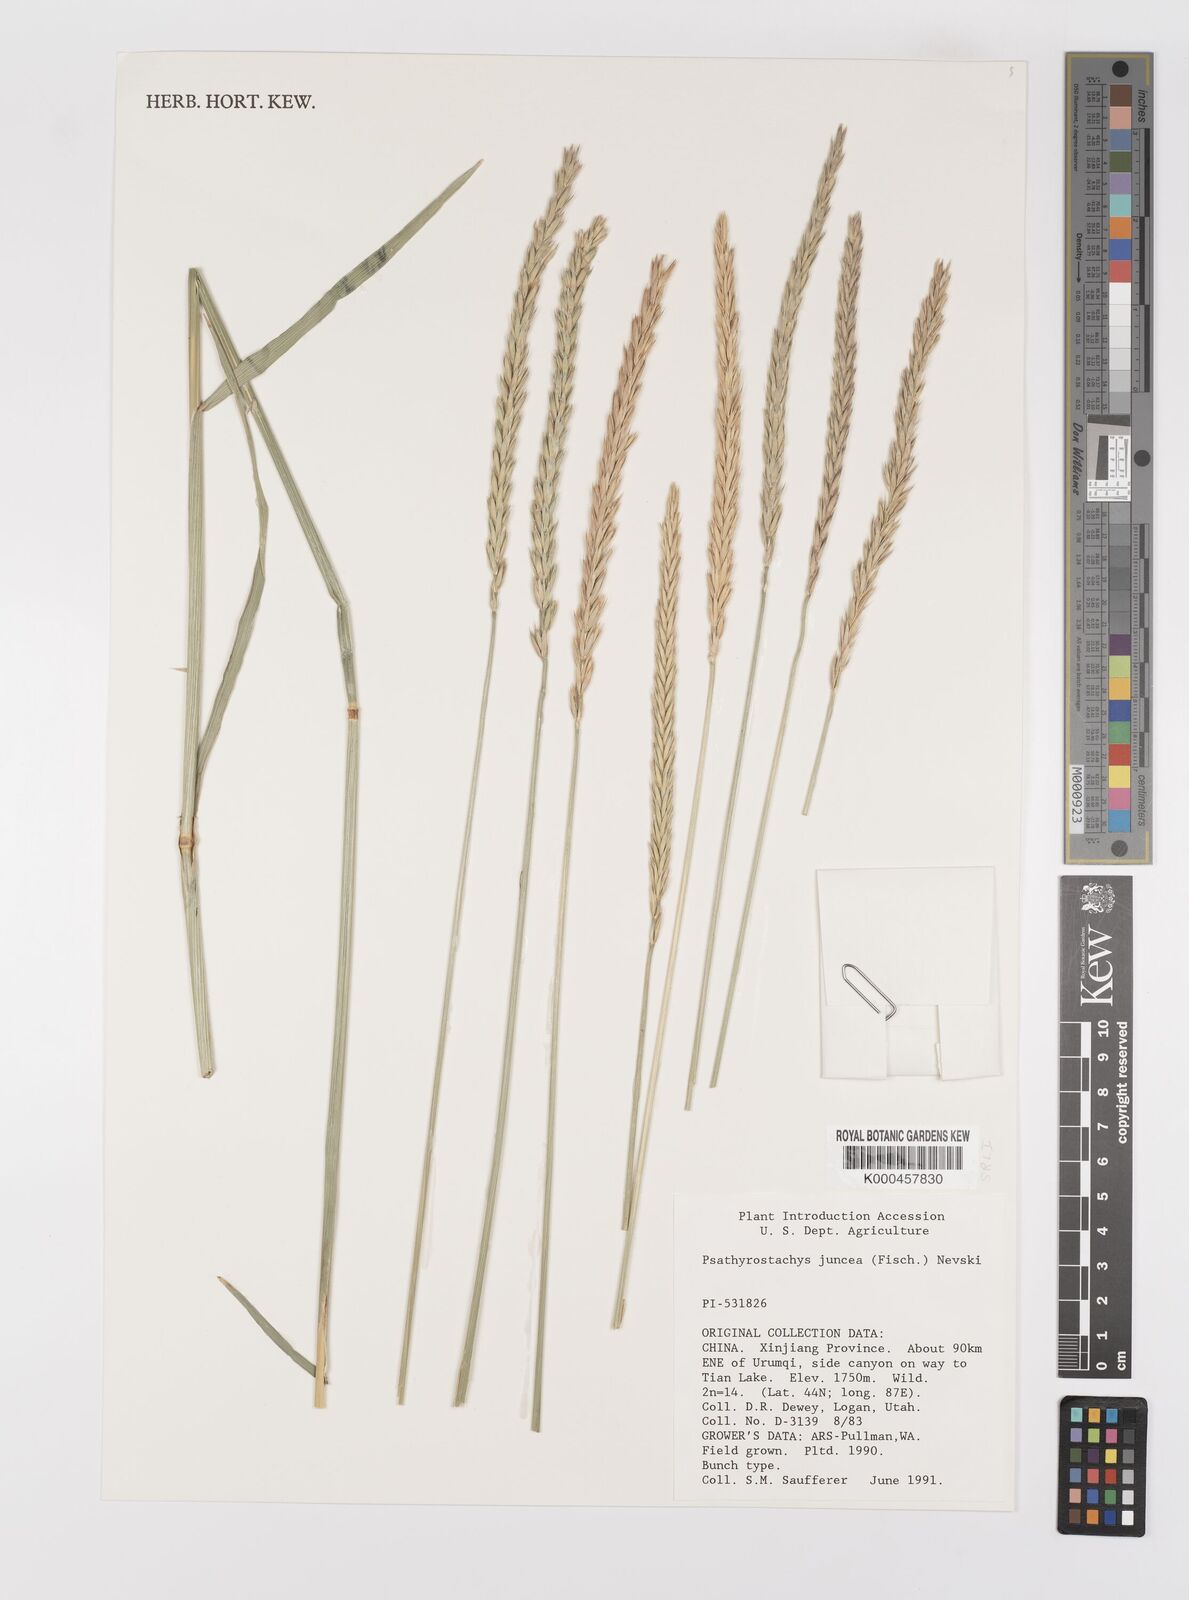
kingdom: Plantae
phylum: Tracheophyta
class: Liliopsida
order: Poales
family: Poaceae
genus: Psathyrostachys
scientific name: Psathyrostachys juncea
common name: Russian wildrye
